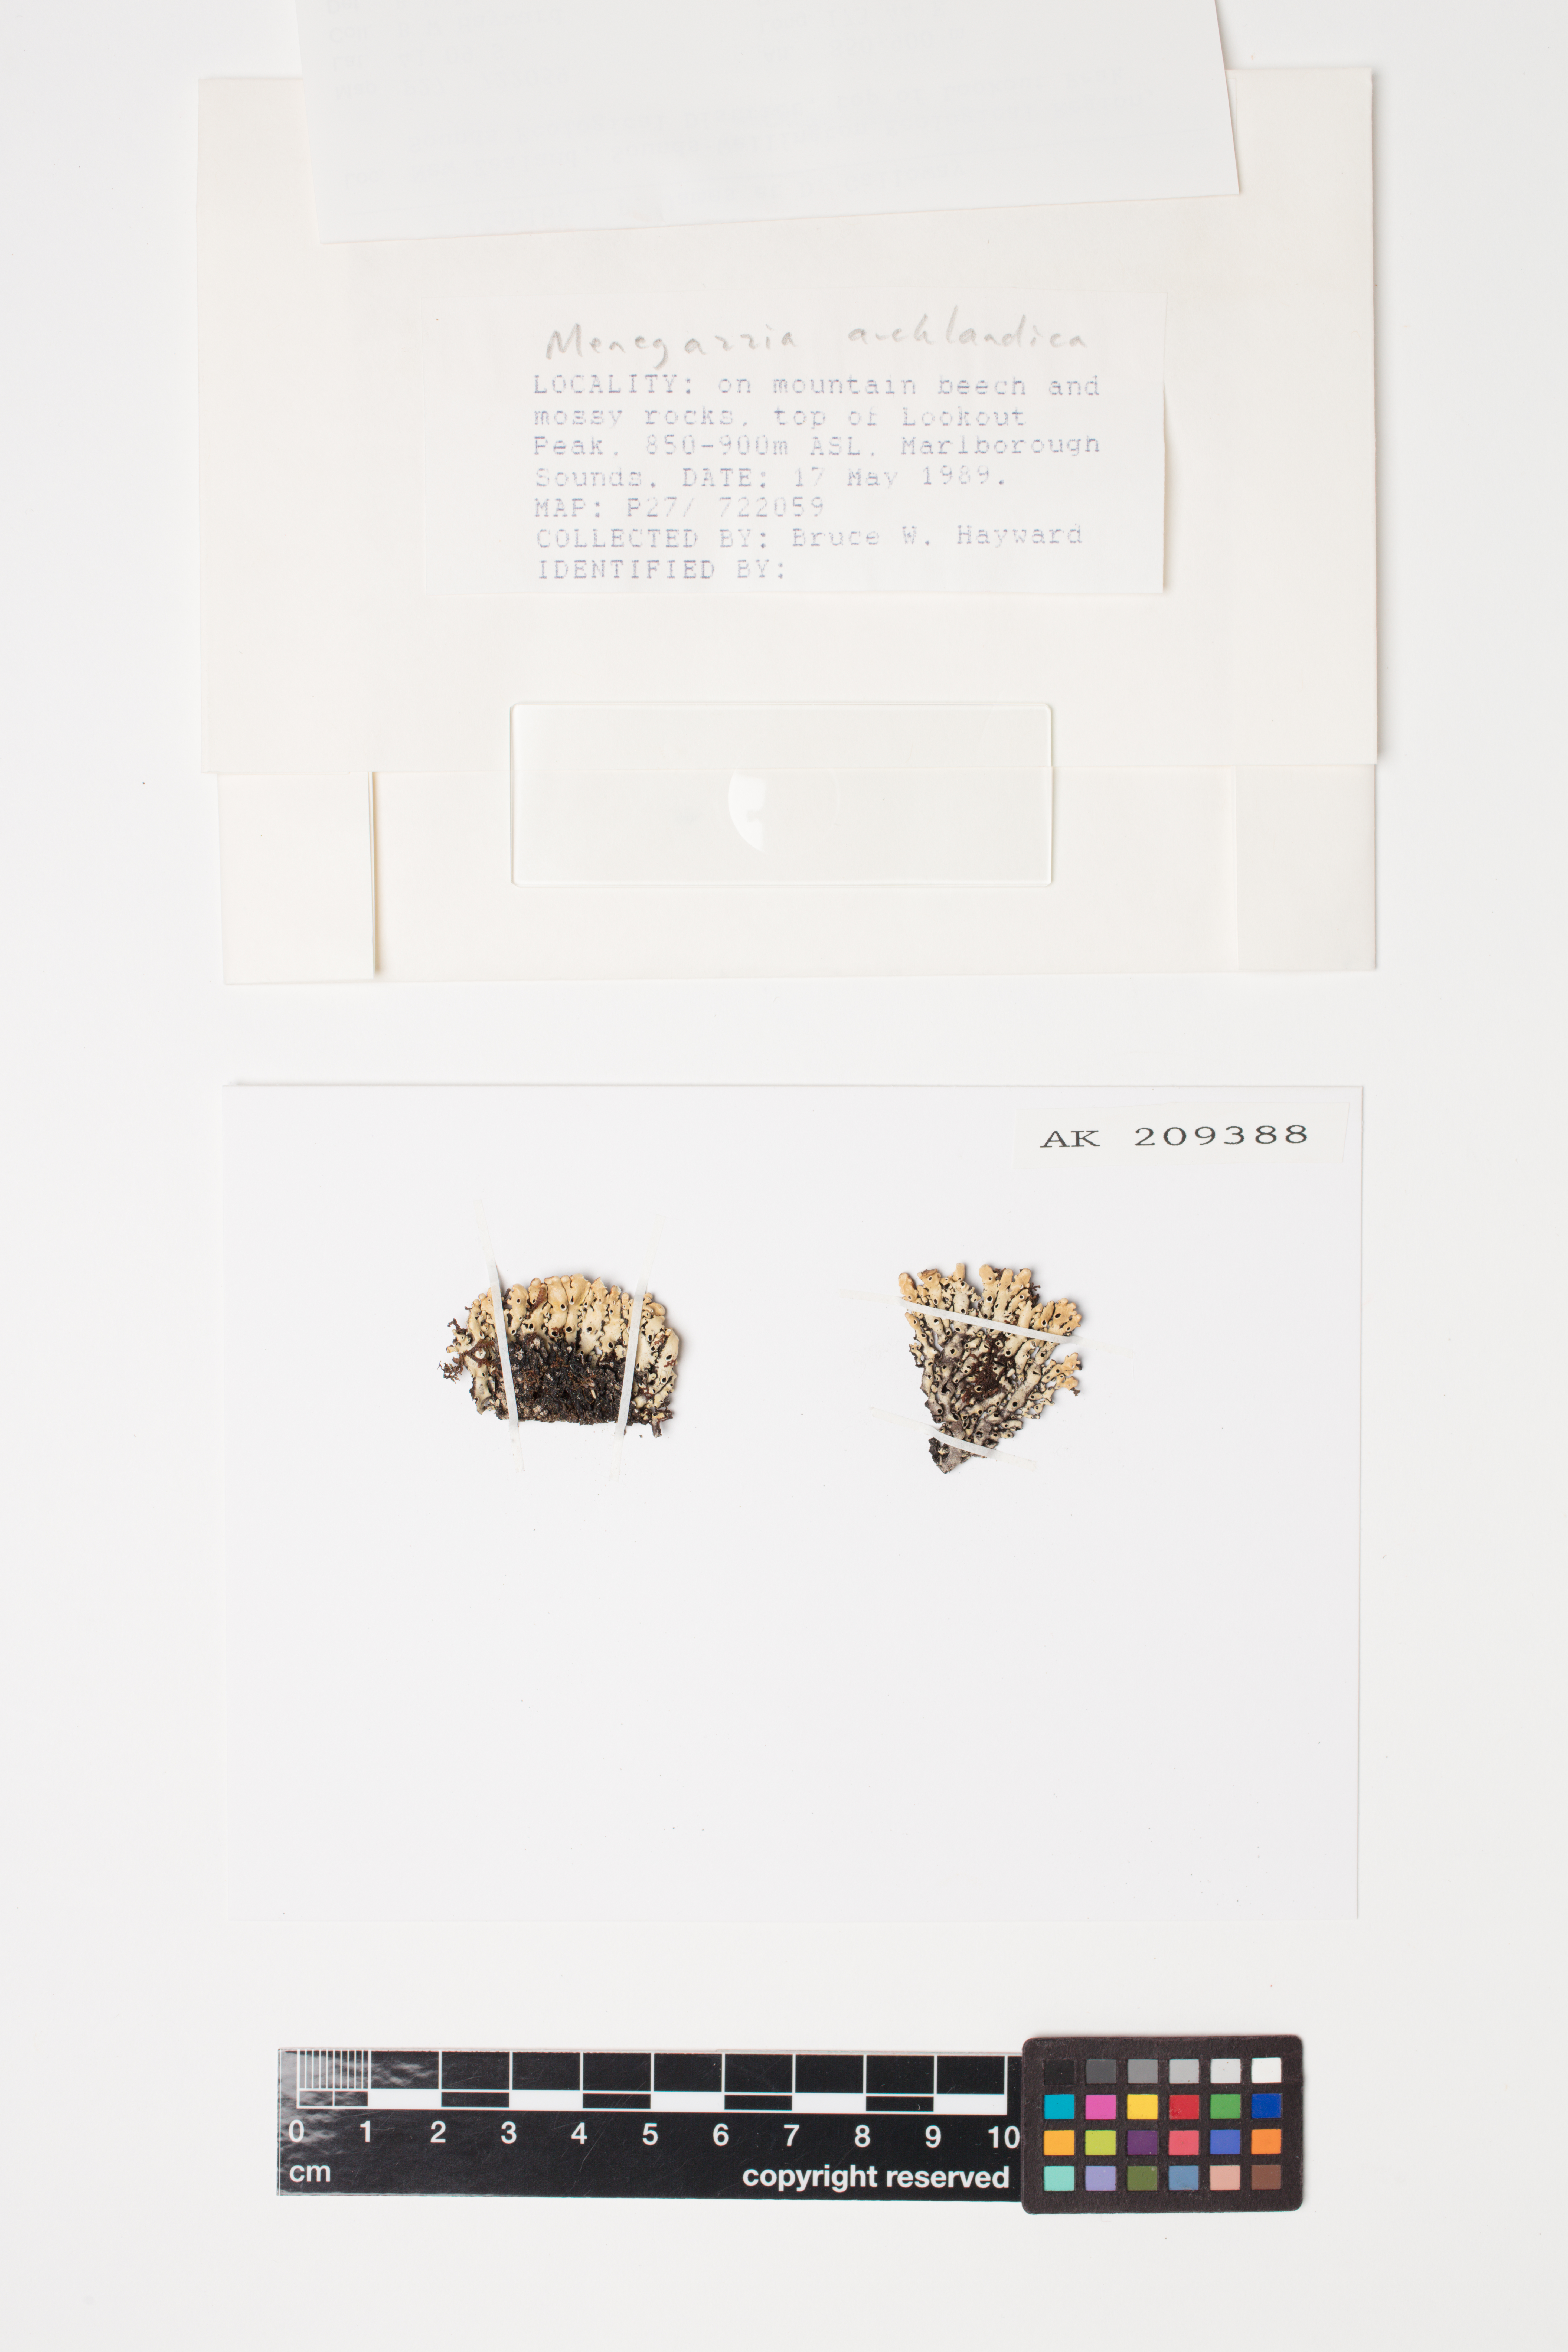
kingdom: Fungi
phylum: Ascomycota
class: Lecanoromycetes
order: Lecanorales
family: Parmeliaceae
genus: Menegazzia
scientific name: Menegazzia aucklandica
